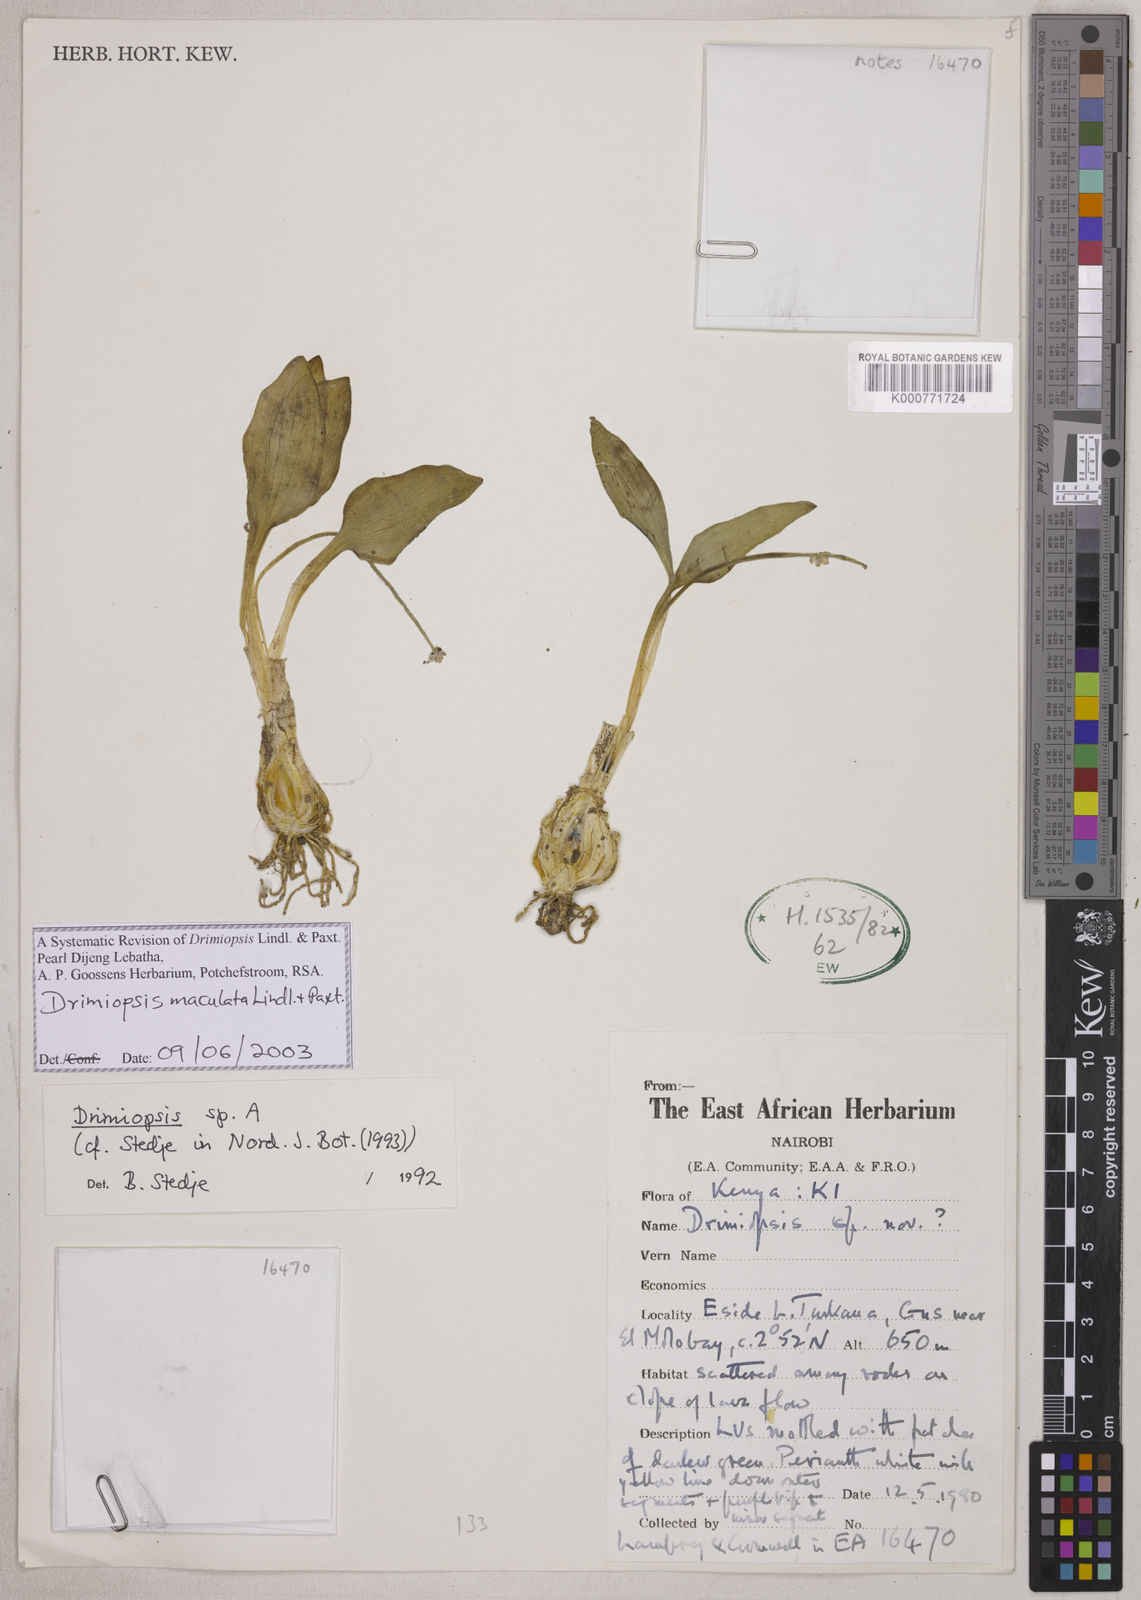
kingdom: Plantae
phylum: Tracheophyta
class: Liliopsida
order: Asparagales
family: Asparagaceae
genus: Drimiopsis
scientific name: Drimiopsis maculata
